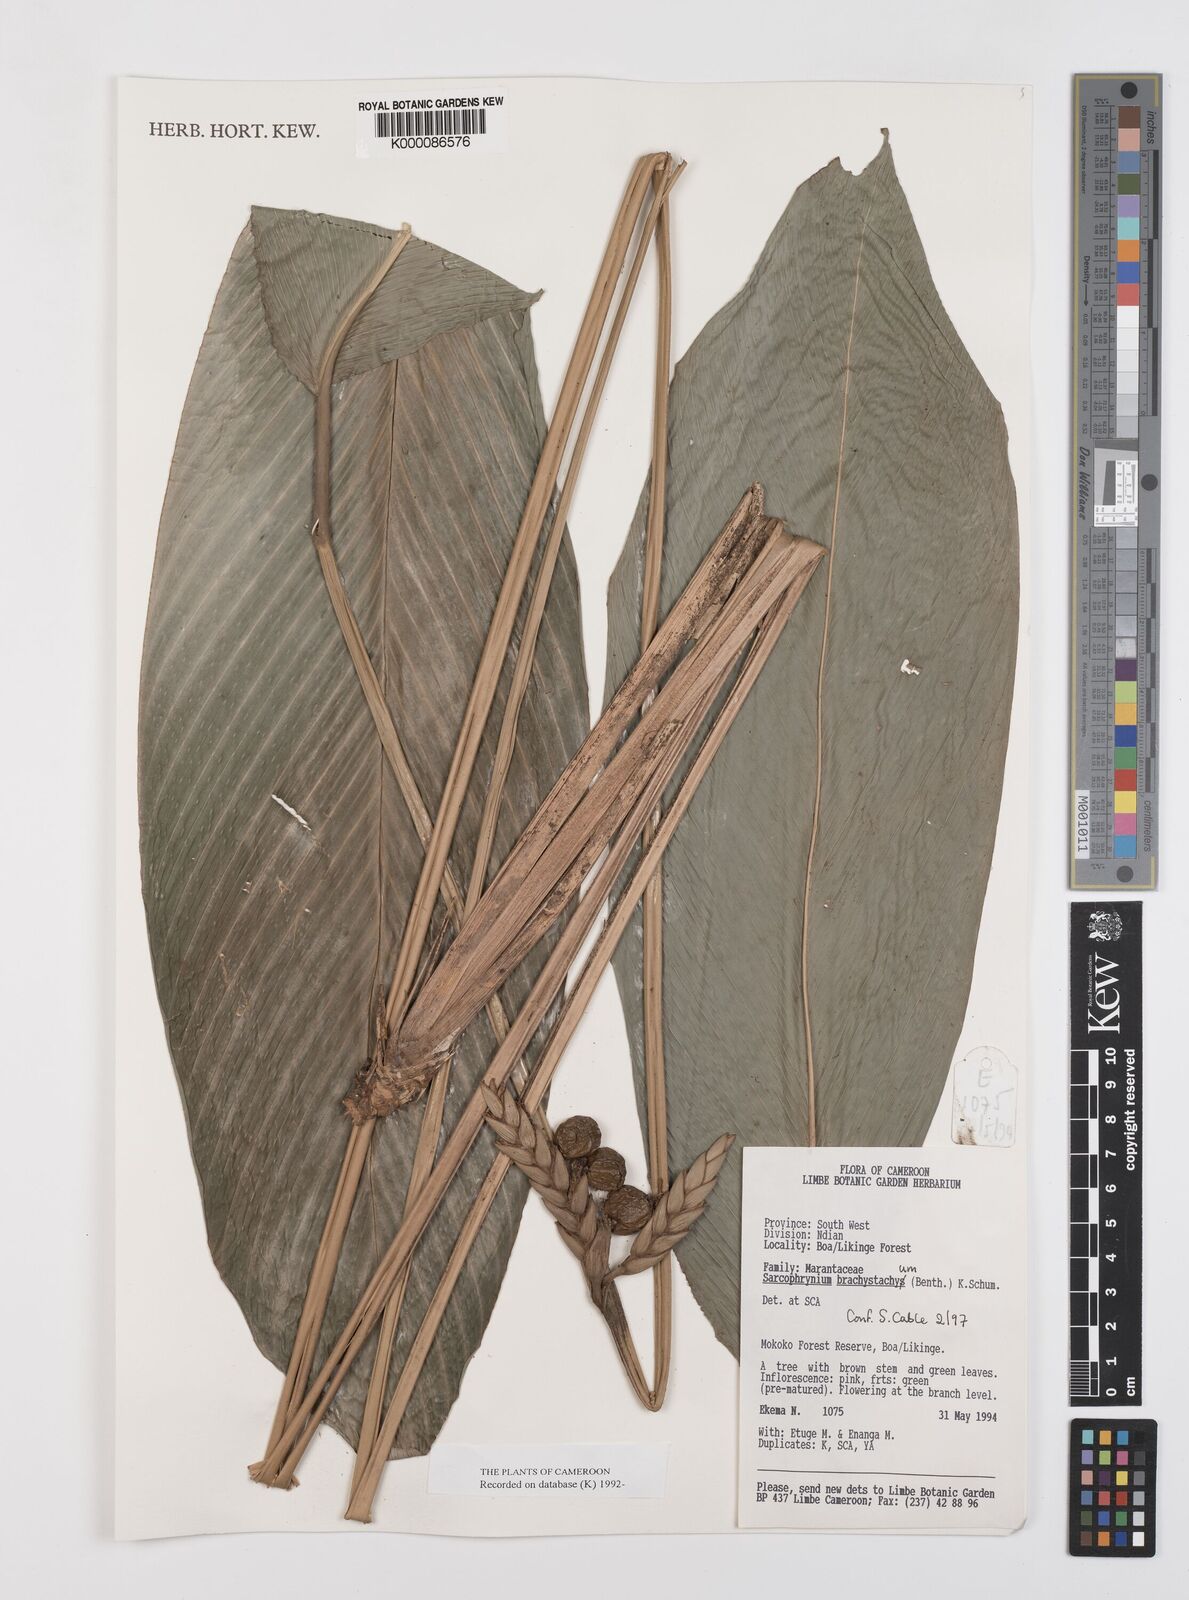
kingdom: Plantae
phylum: Tracheophyta
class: Liliopsida
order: Zingiberales
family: Marantaceae
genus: Sarcophrynium
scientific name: Sarcophrynium
